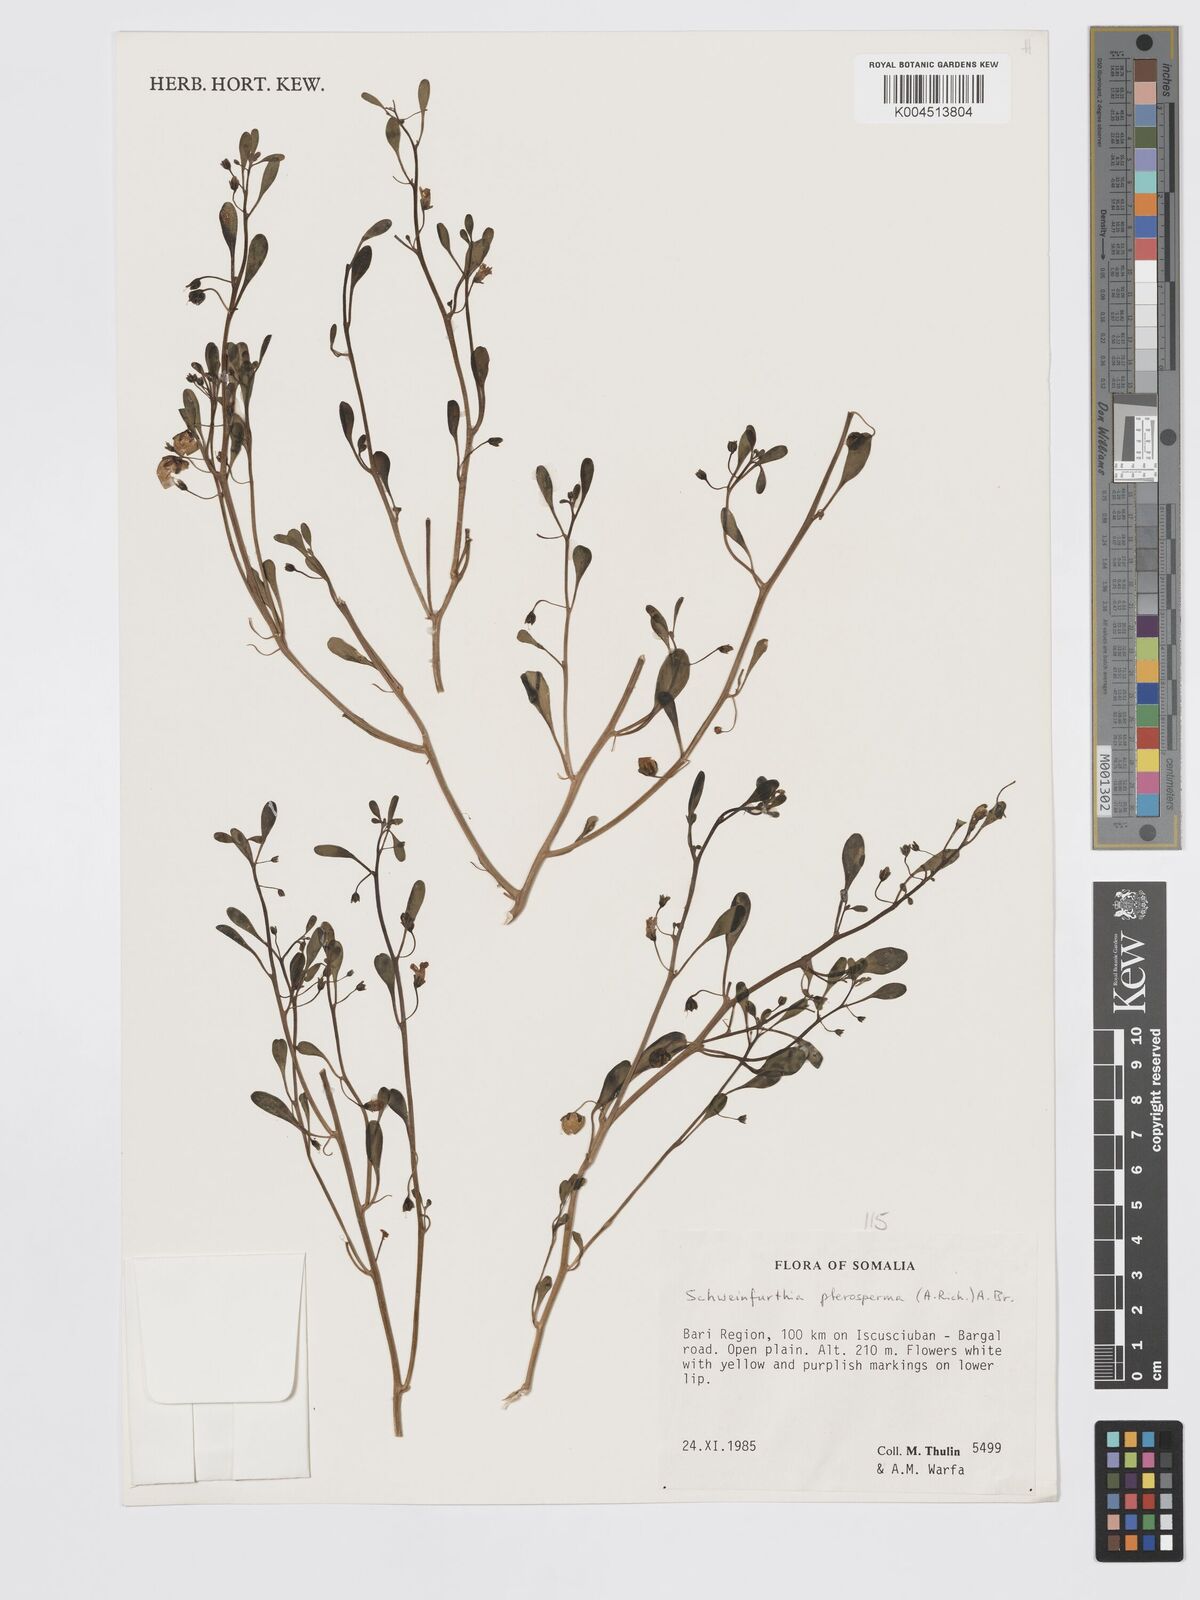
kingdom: Plantae
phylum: Tracheophyta
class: Magnoliopsida
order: Lamiales
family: Plantaginaceae
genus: Schweinfurthia
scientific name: Schweinfurthia pterosperma
